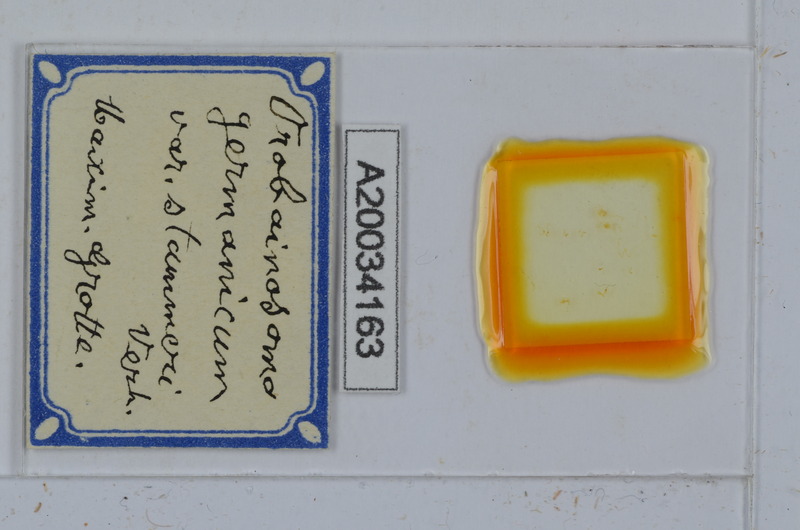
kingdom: Animalia
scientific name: Animalia
